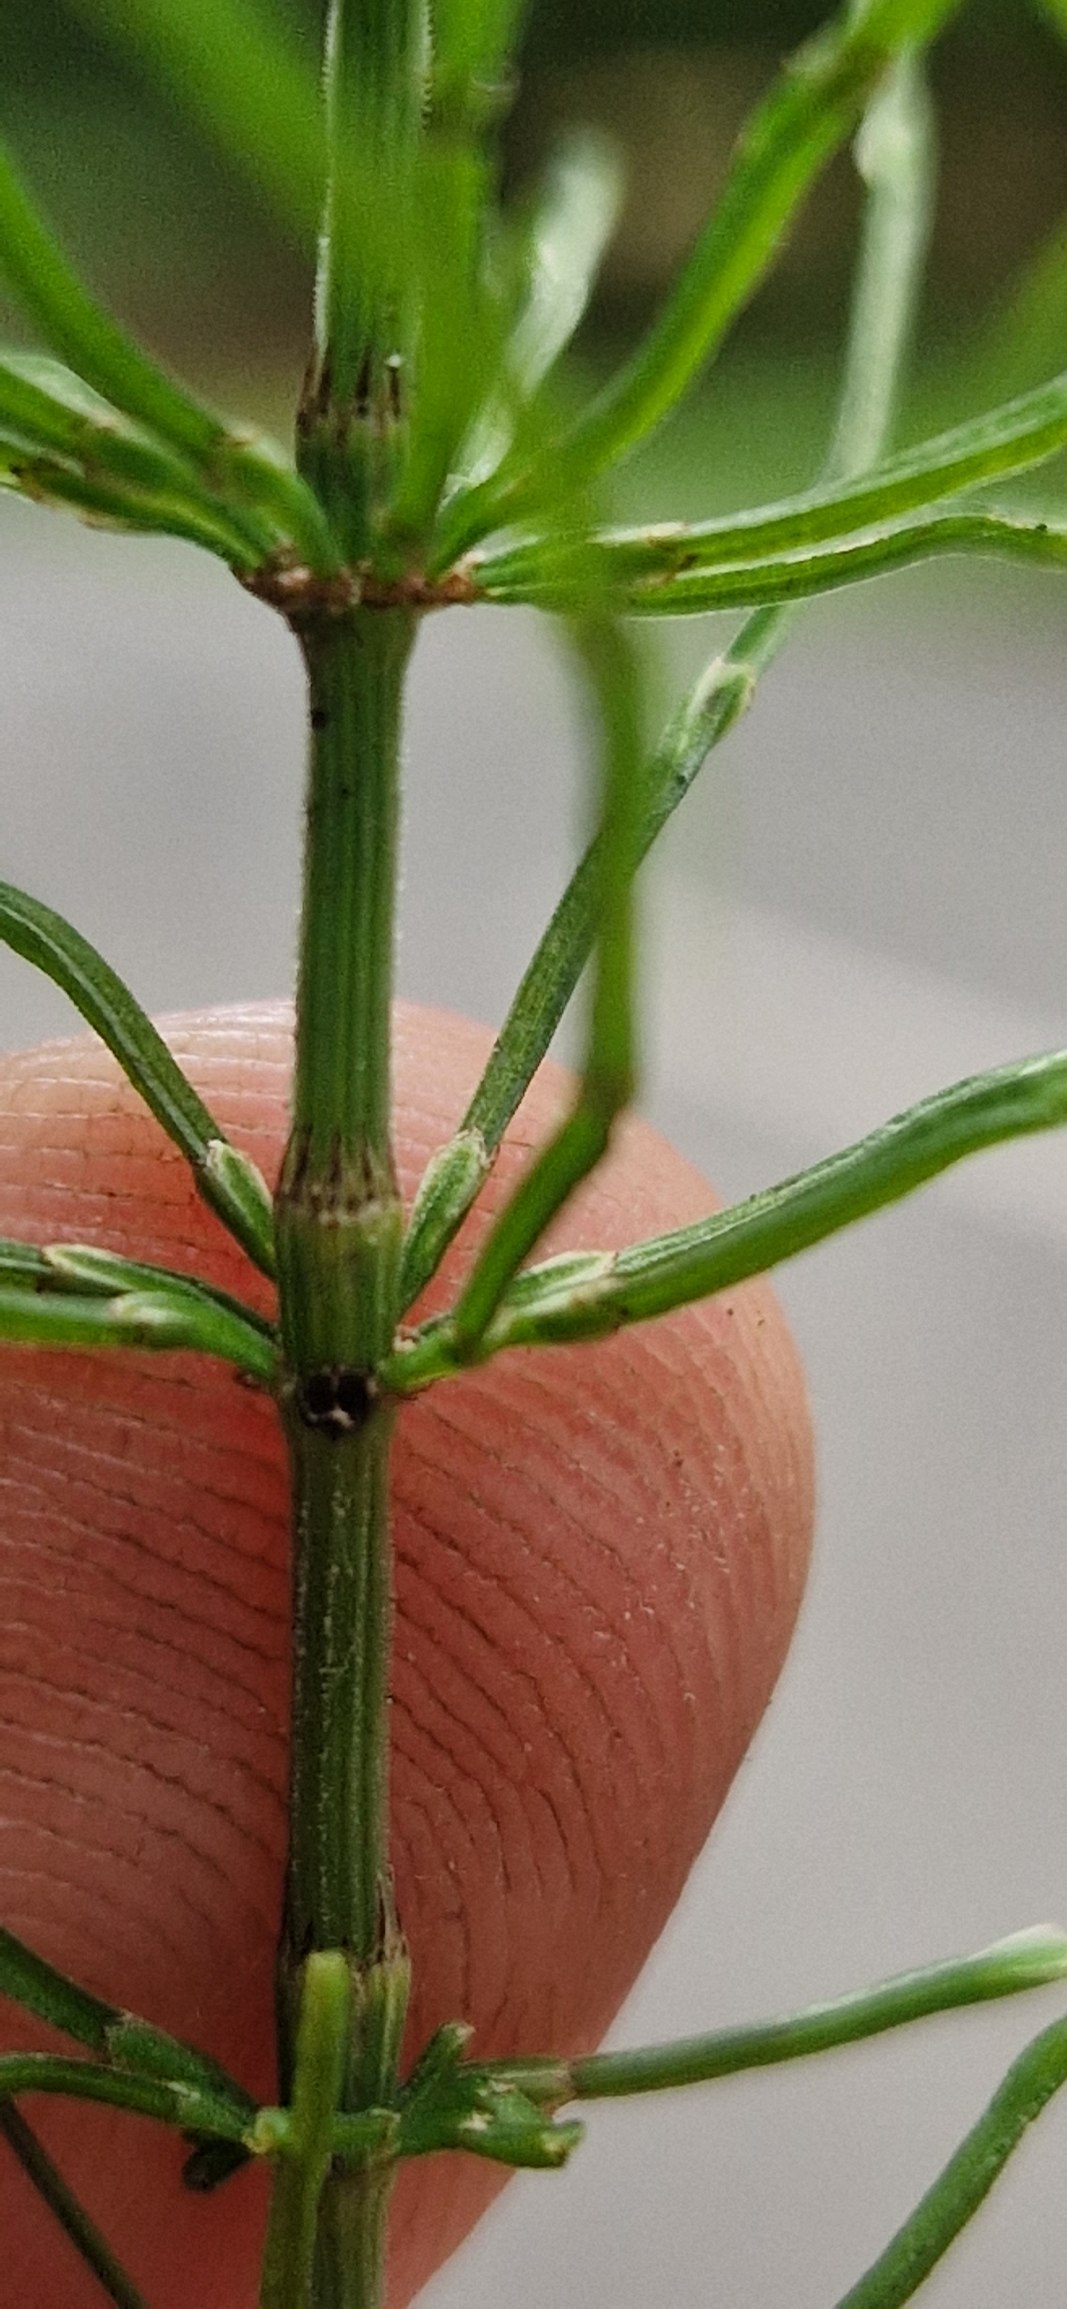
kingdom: Plantae
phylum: Tracheophyta
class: Polypodiopsida
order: Equisetales
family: Equisetaceae
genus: Equisetum
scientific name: Equisetum pratense
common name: Lund-padderok
